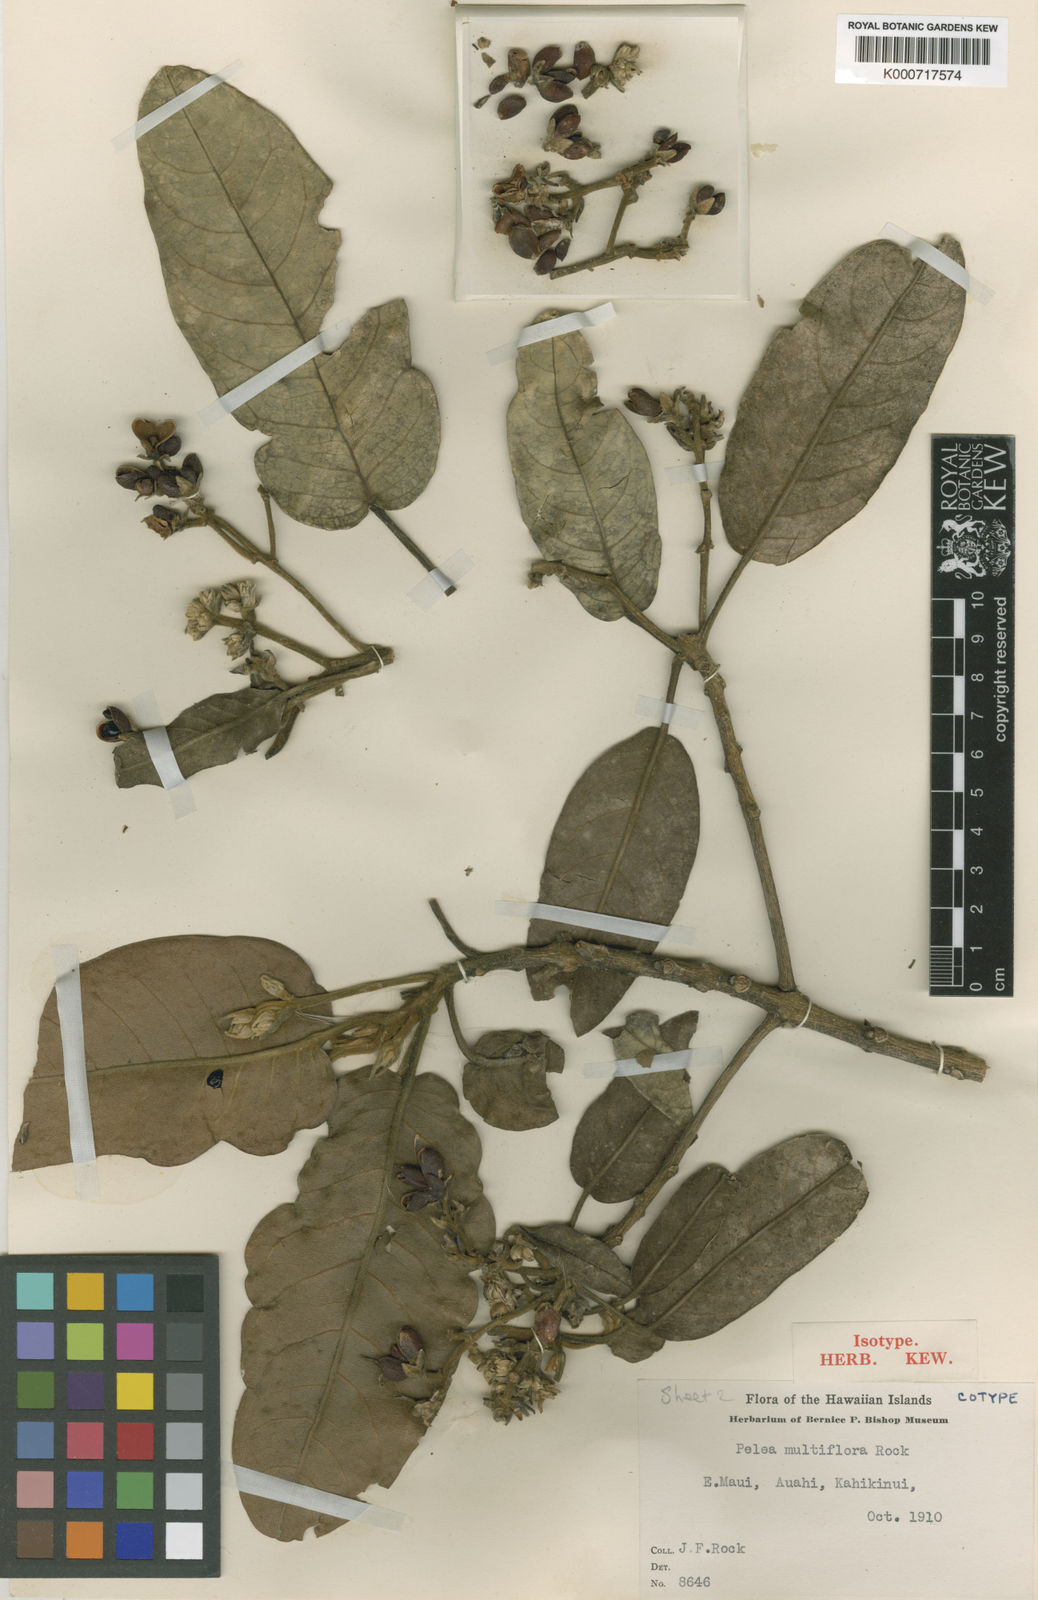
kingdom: Plantae
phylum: Tracheophyta
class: Magnoliopsida
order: Sapindales
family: Rutaceae
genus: Melicope
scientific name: Melicope knudsenii
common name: Knudsen's melicope
